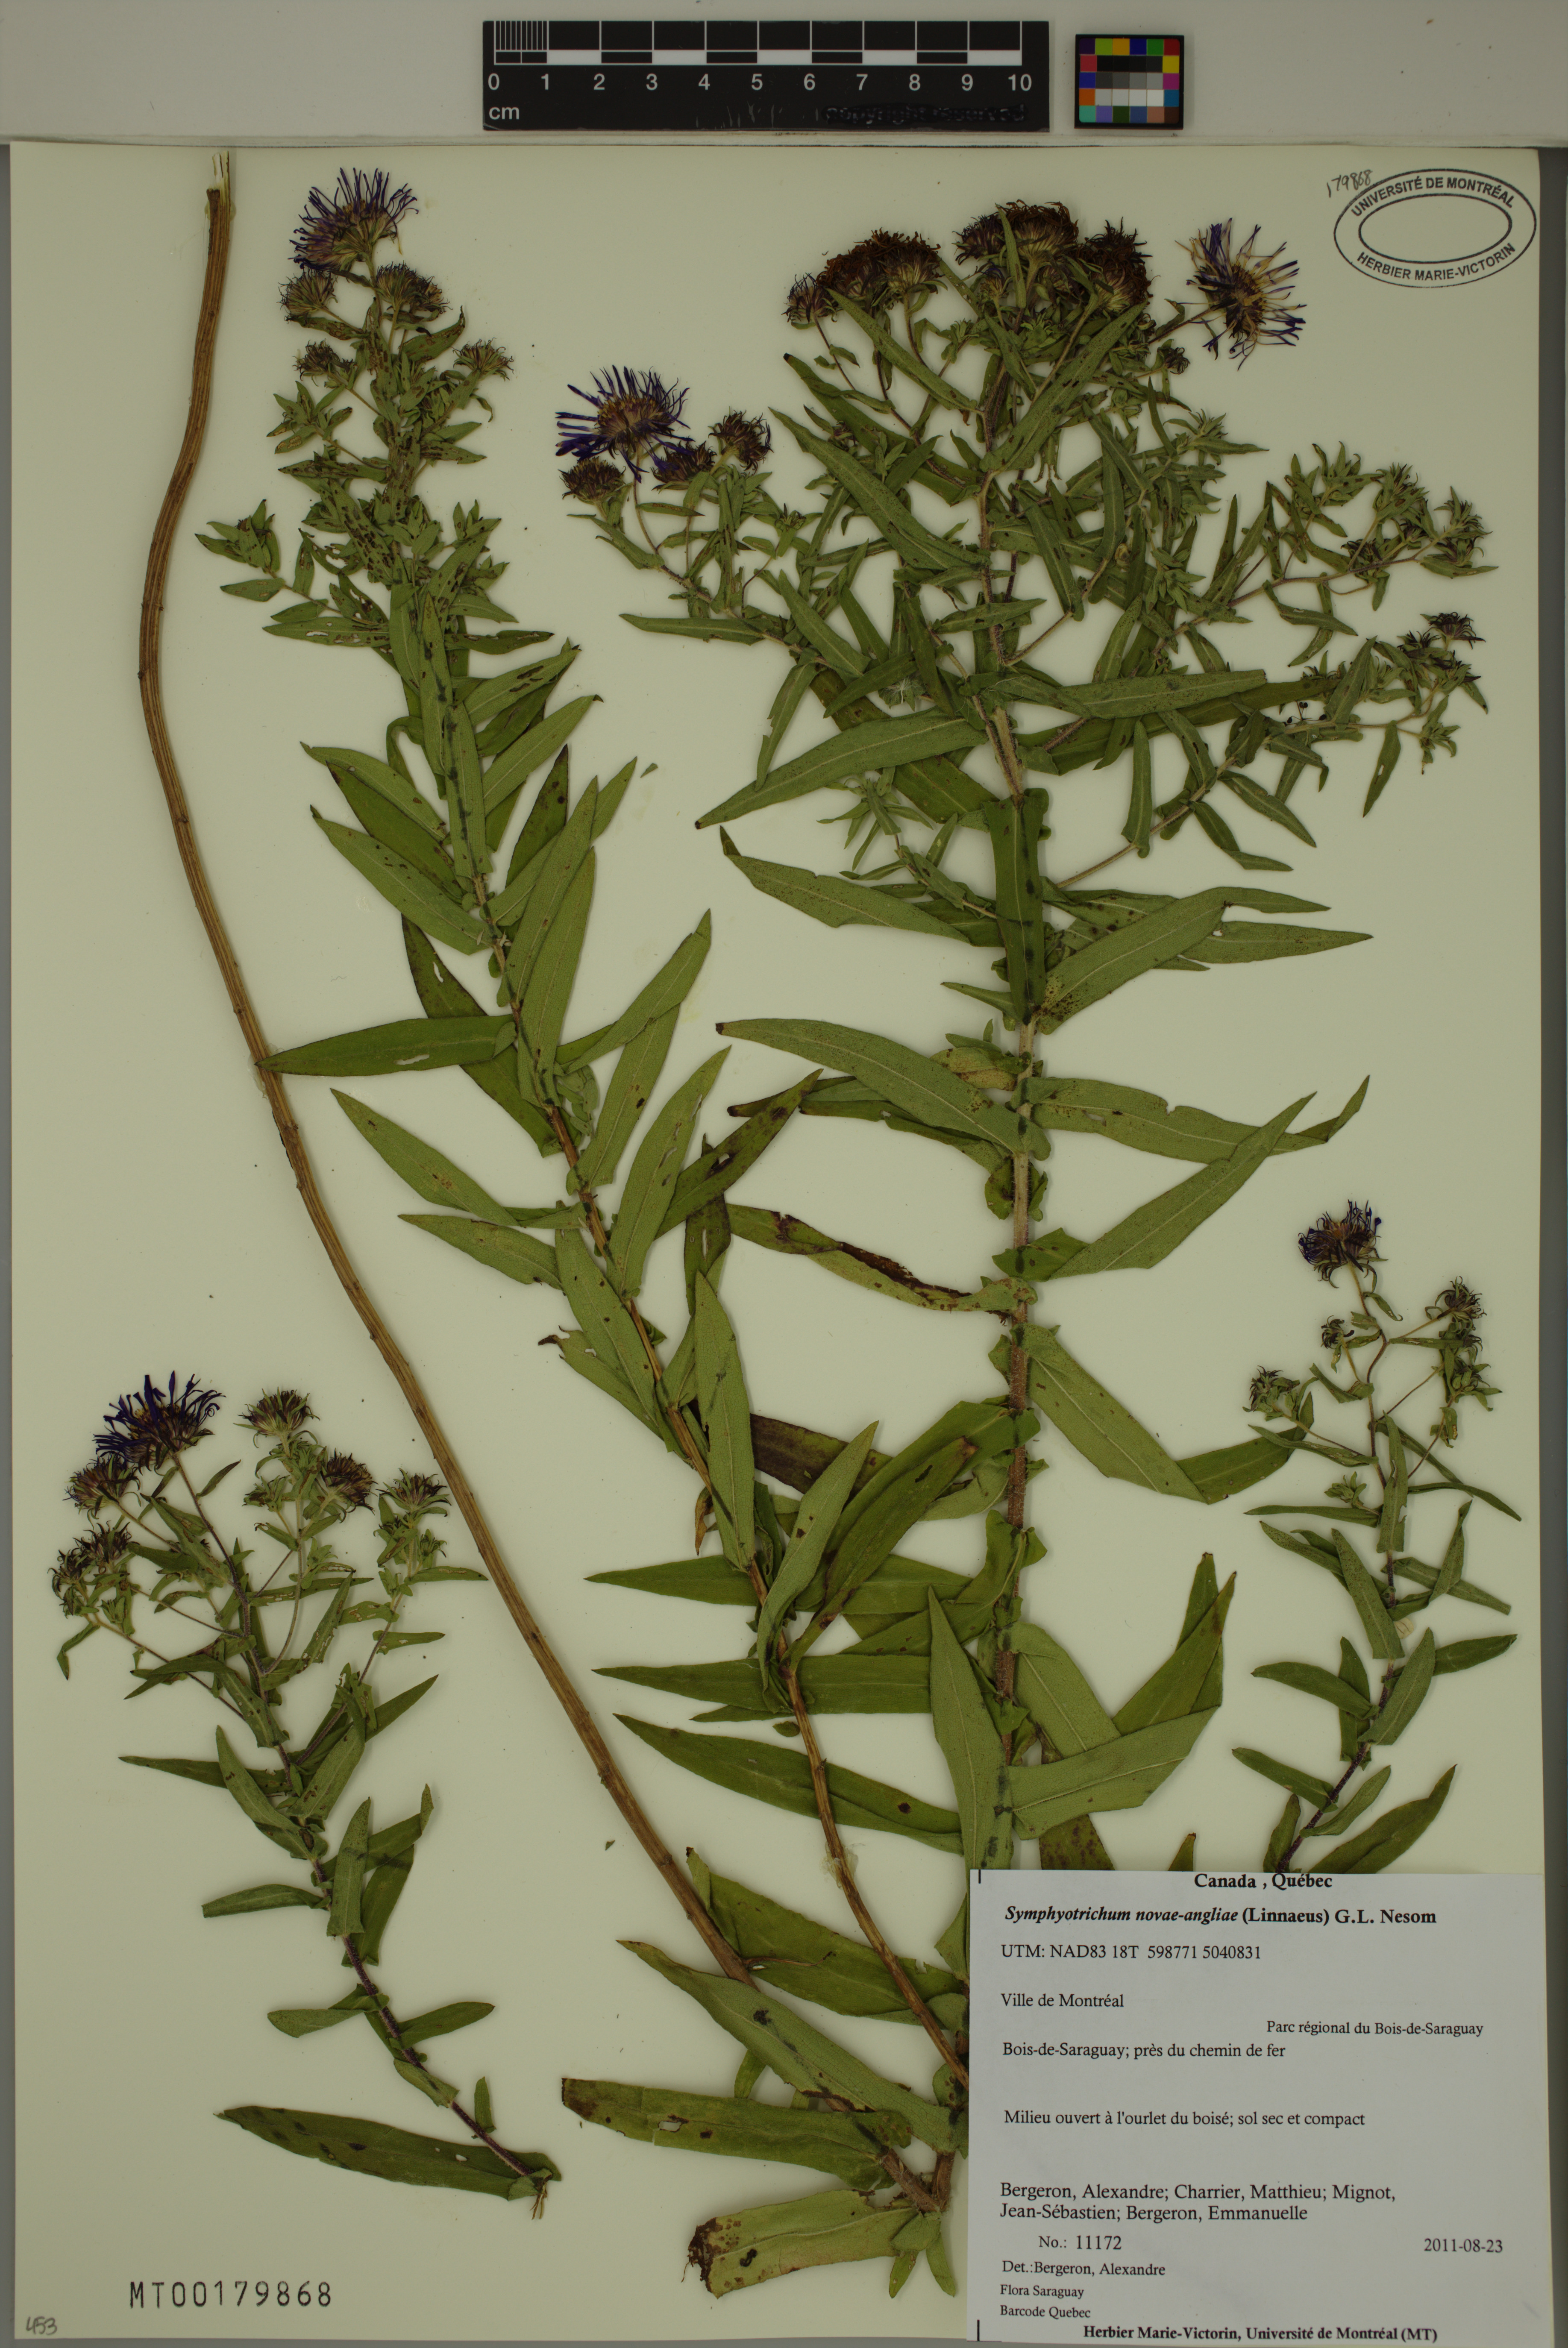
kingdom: Plantae
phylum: Tracheophyta
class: Magnoliopsida
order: Asterales
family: Asteraceae
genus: Symphyotrichum
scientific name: Symphyotrichum novae-angliae
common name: Michaelmas daisy
